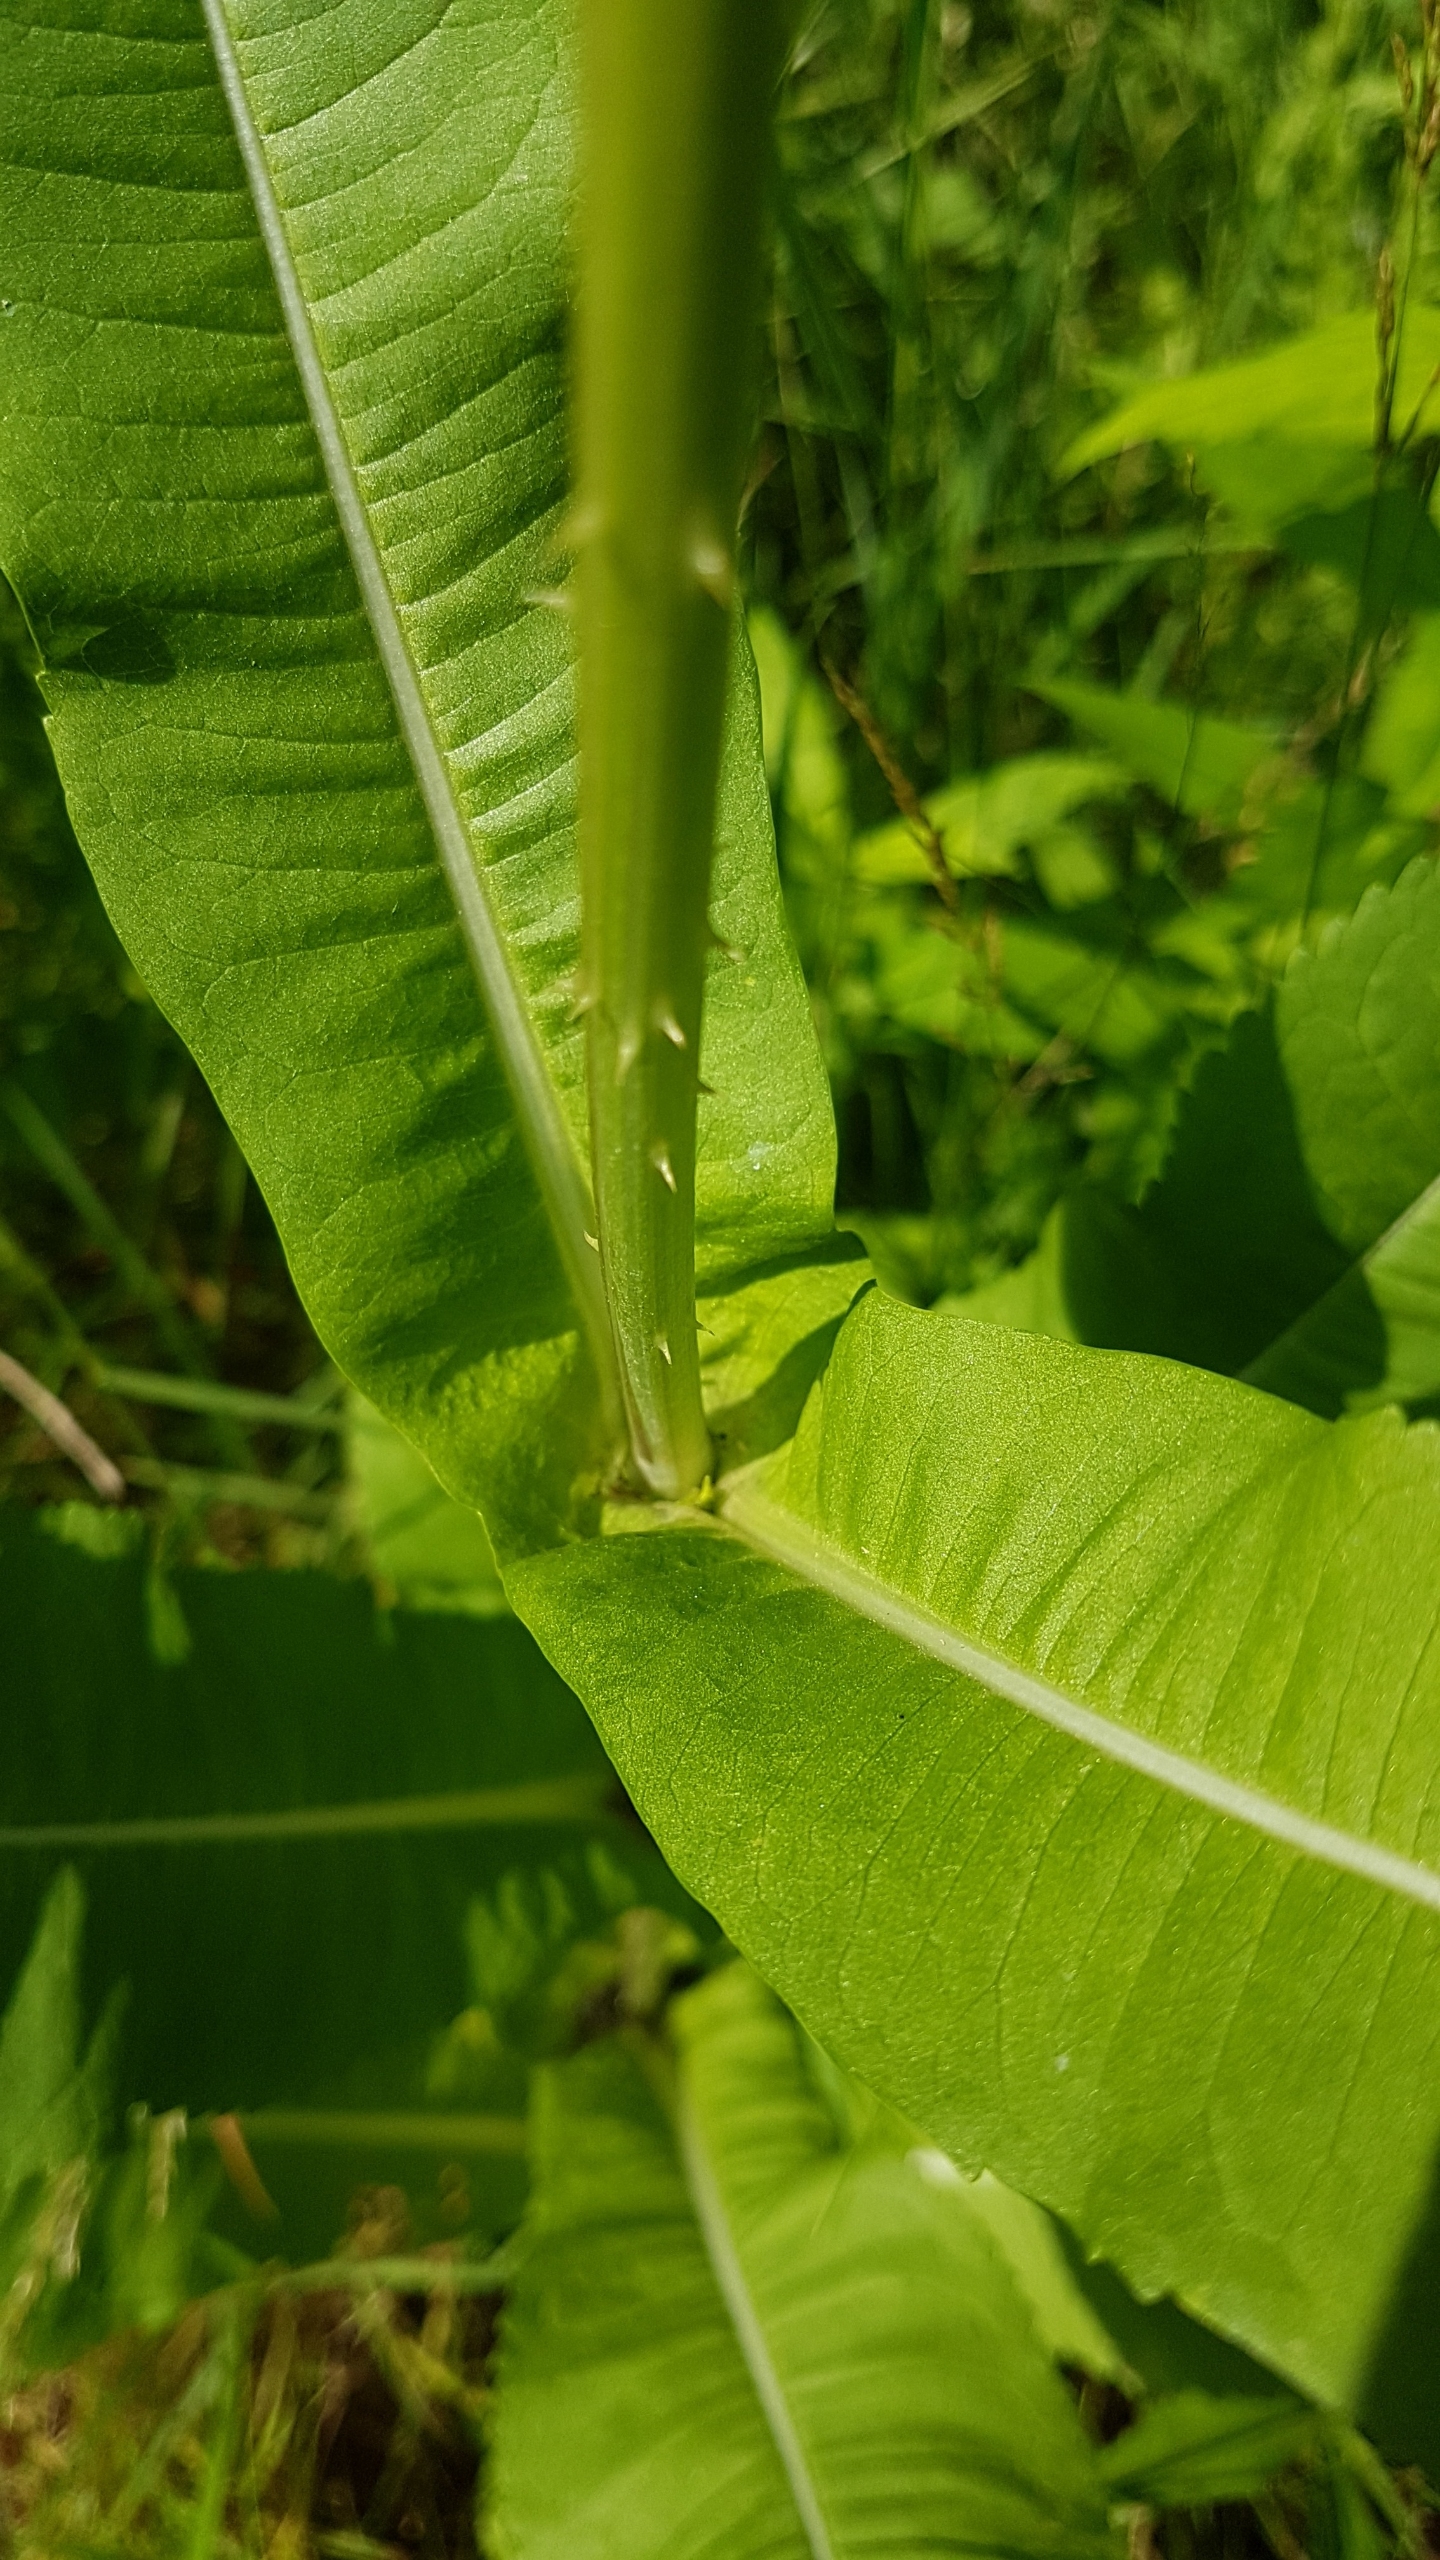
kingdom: Plantae
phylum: Tracheophyta
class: Magnoliopsida
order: Dipsacales
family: Caprifoliaceae
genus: Dipsacus
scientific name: Dipsacus fullonum
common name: Gærde-kartebolle
